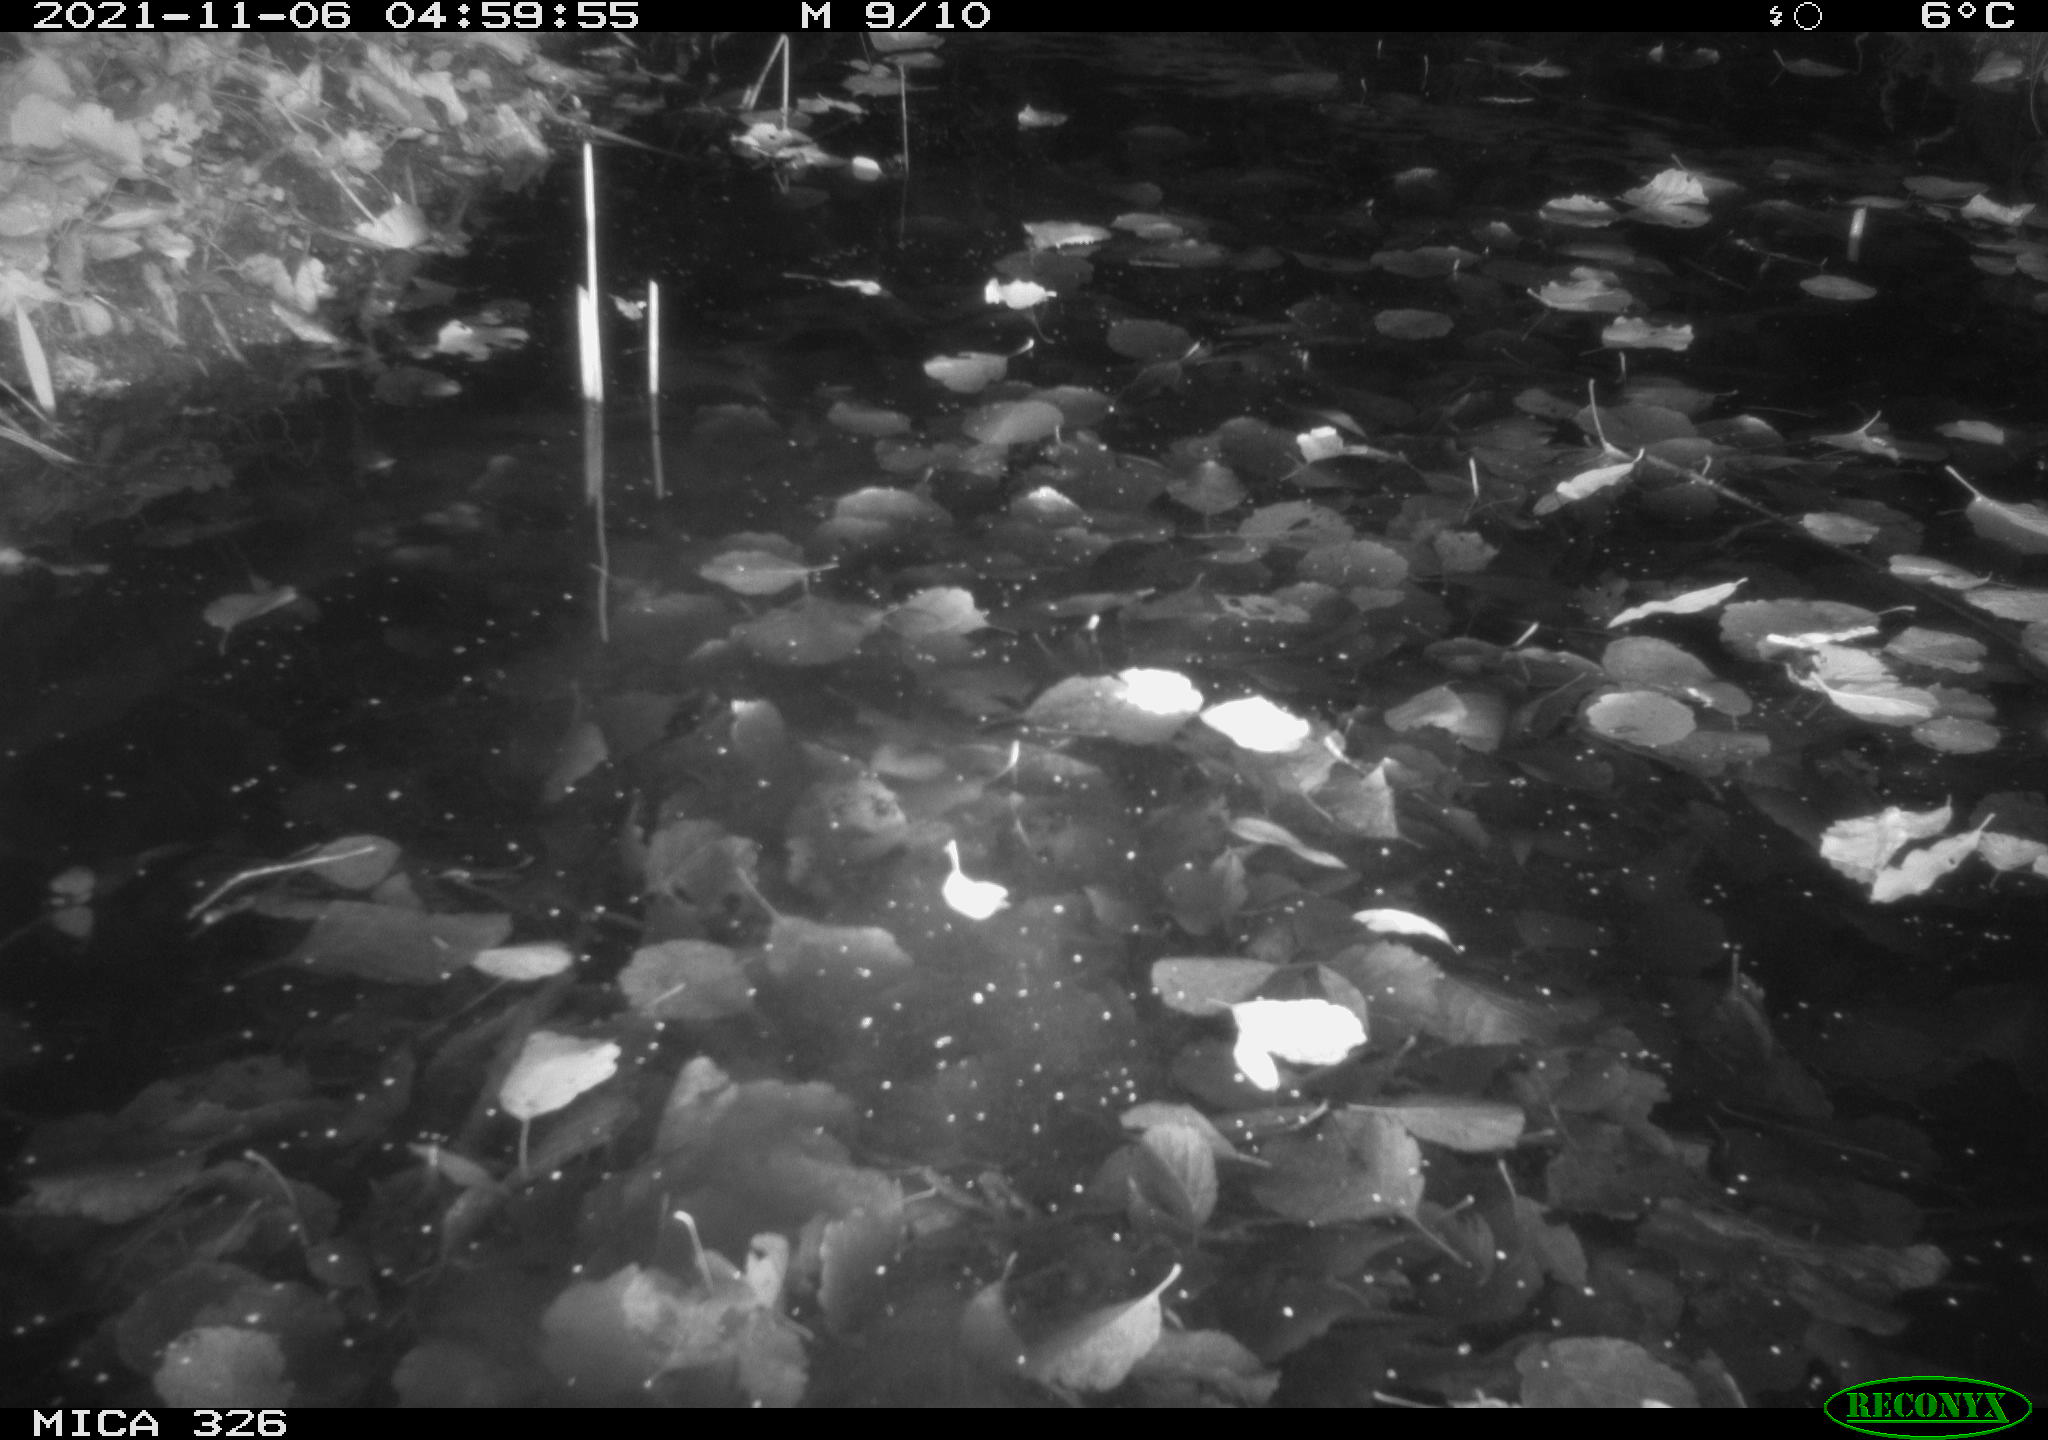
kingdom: Animalia
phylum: Chordata
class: Mammalia
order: Rodentia
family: Myocastoridae
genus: Myocastor
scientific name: Myocastor coypus
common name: Coypu
